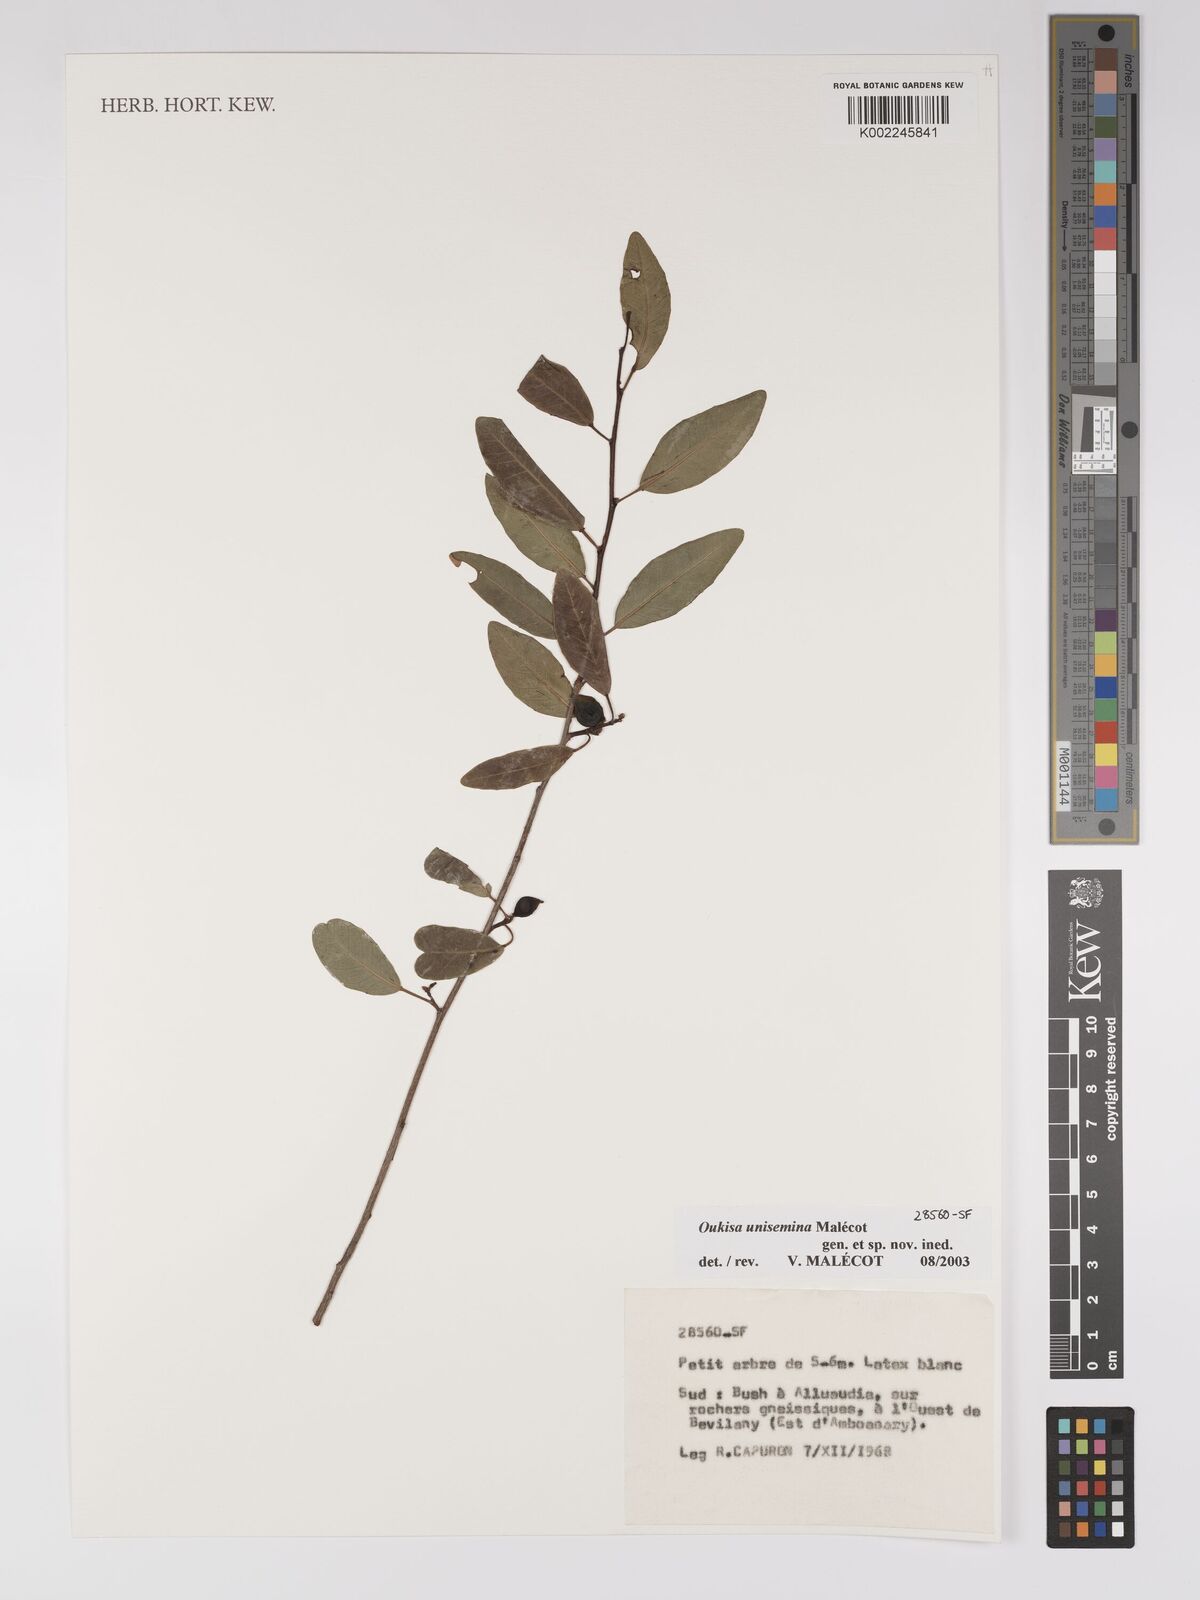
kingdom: Plantae
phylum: Tracheophyta
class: Magnoliopsida
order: Malpighiales
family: Euphorbiaceae
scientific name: Euphorbiaceae
